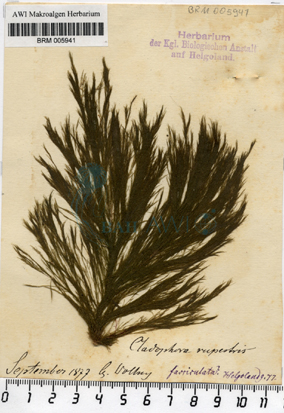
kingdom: Plantae
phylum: Chlorophyta
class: Ulvophyceae
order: Cladophorales
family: Cladophoraceae
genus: Cladophora
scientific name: Cladophora rupestris
